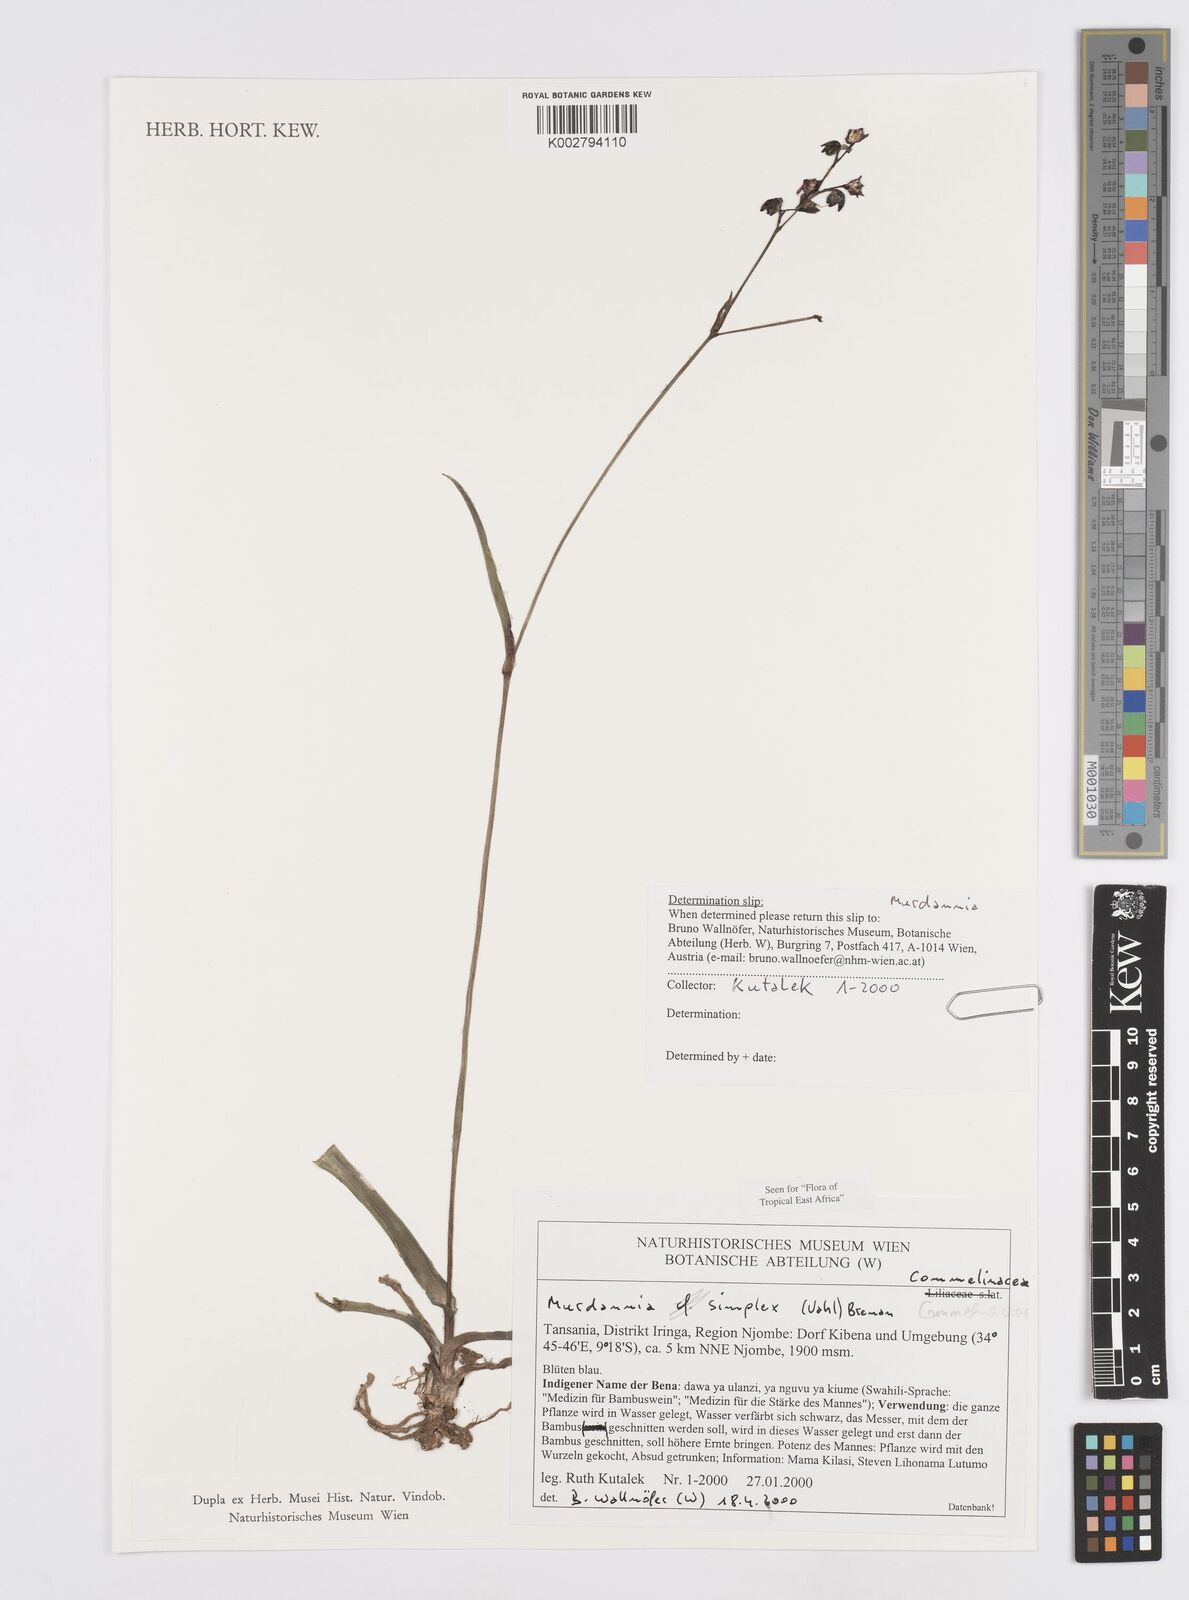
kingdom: Plantae
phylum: Tracheophyta
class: Liliopsida
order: Commelinales
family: Commelinaceae
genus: Murdannia
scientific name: Murdannia simplex
